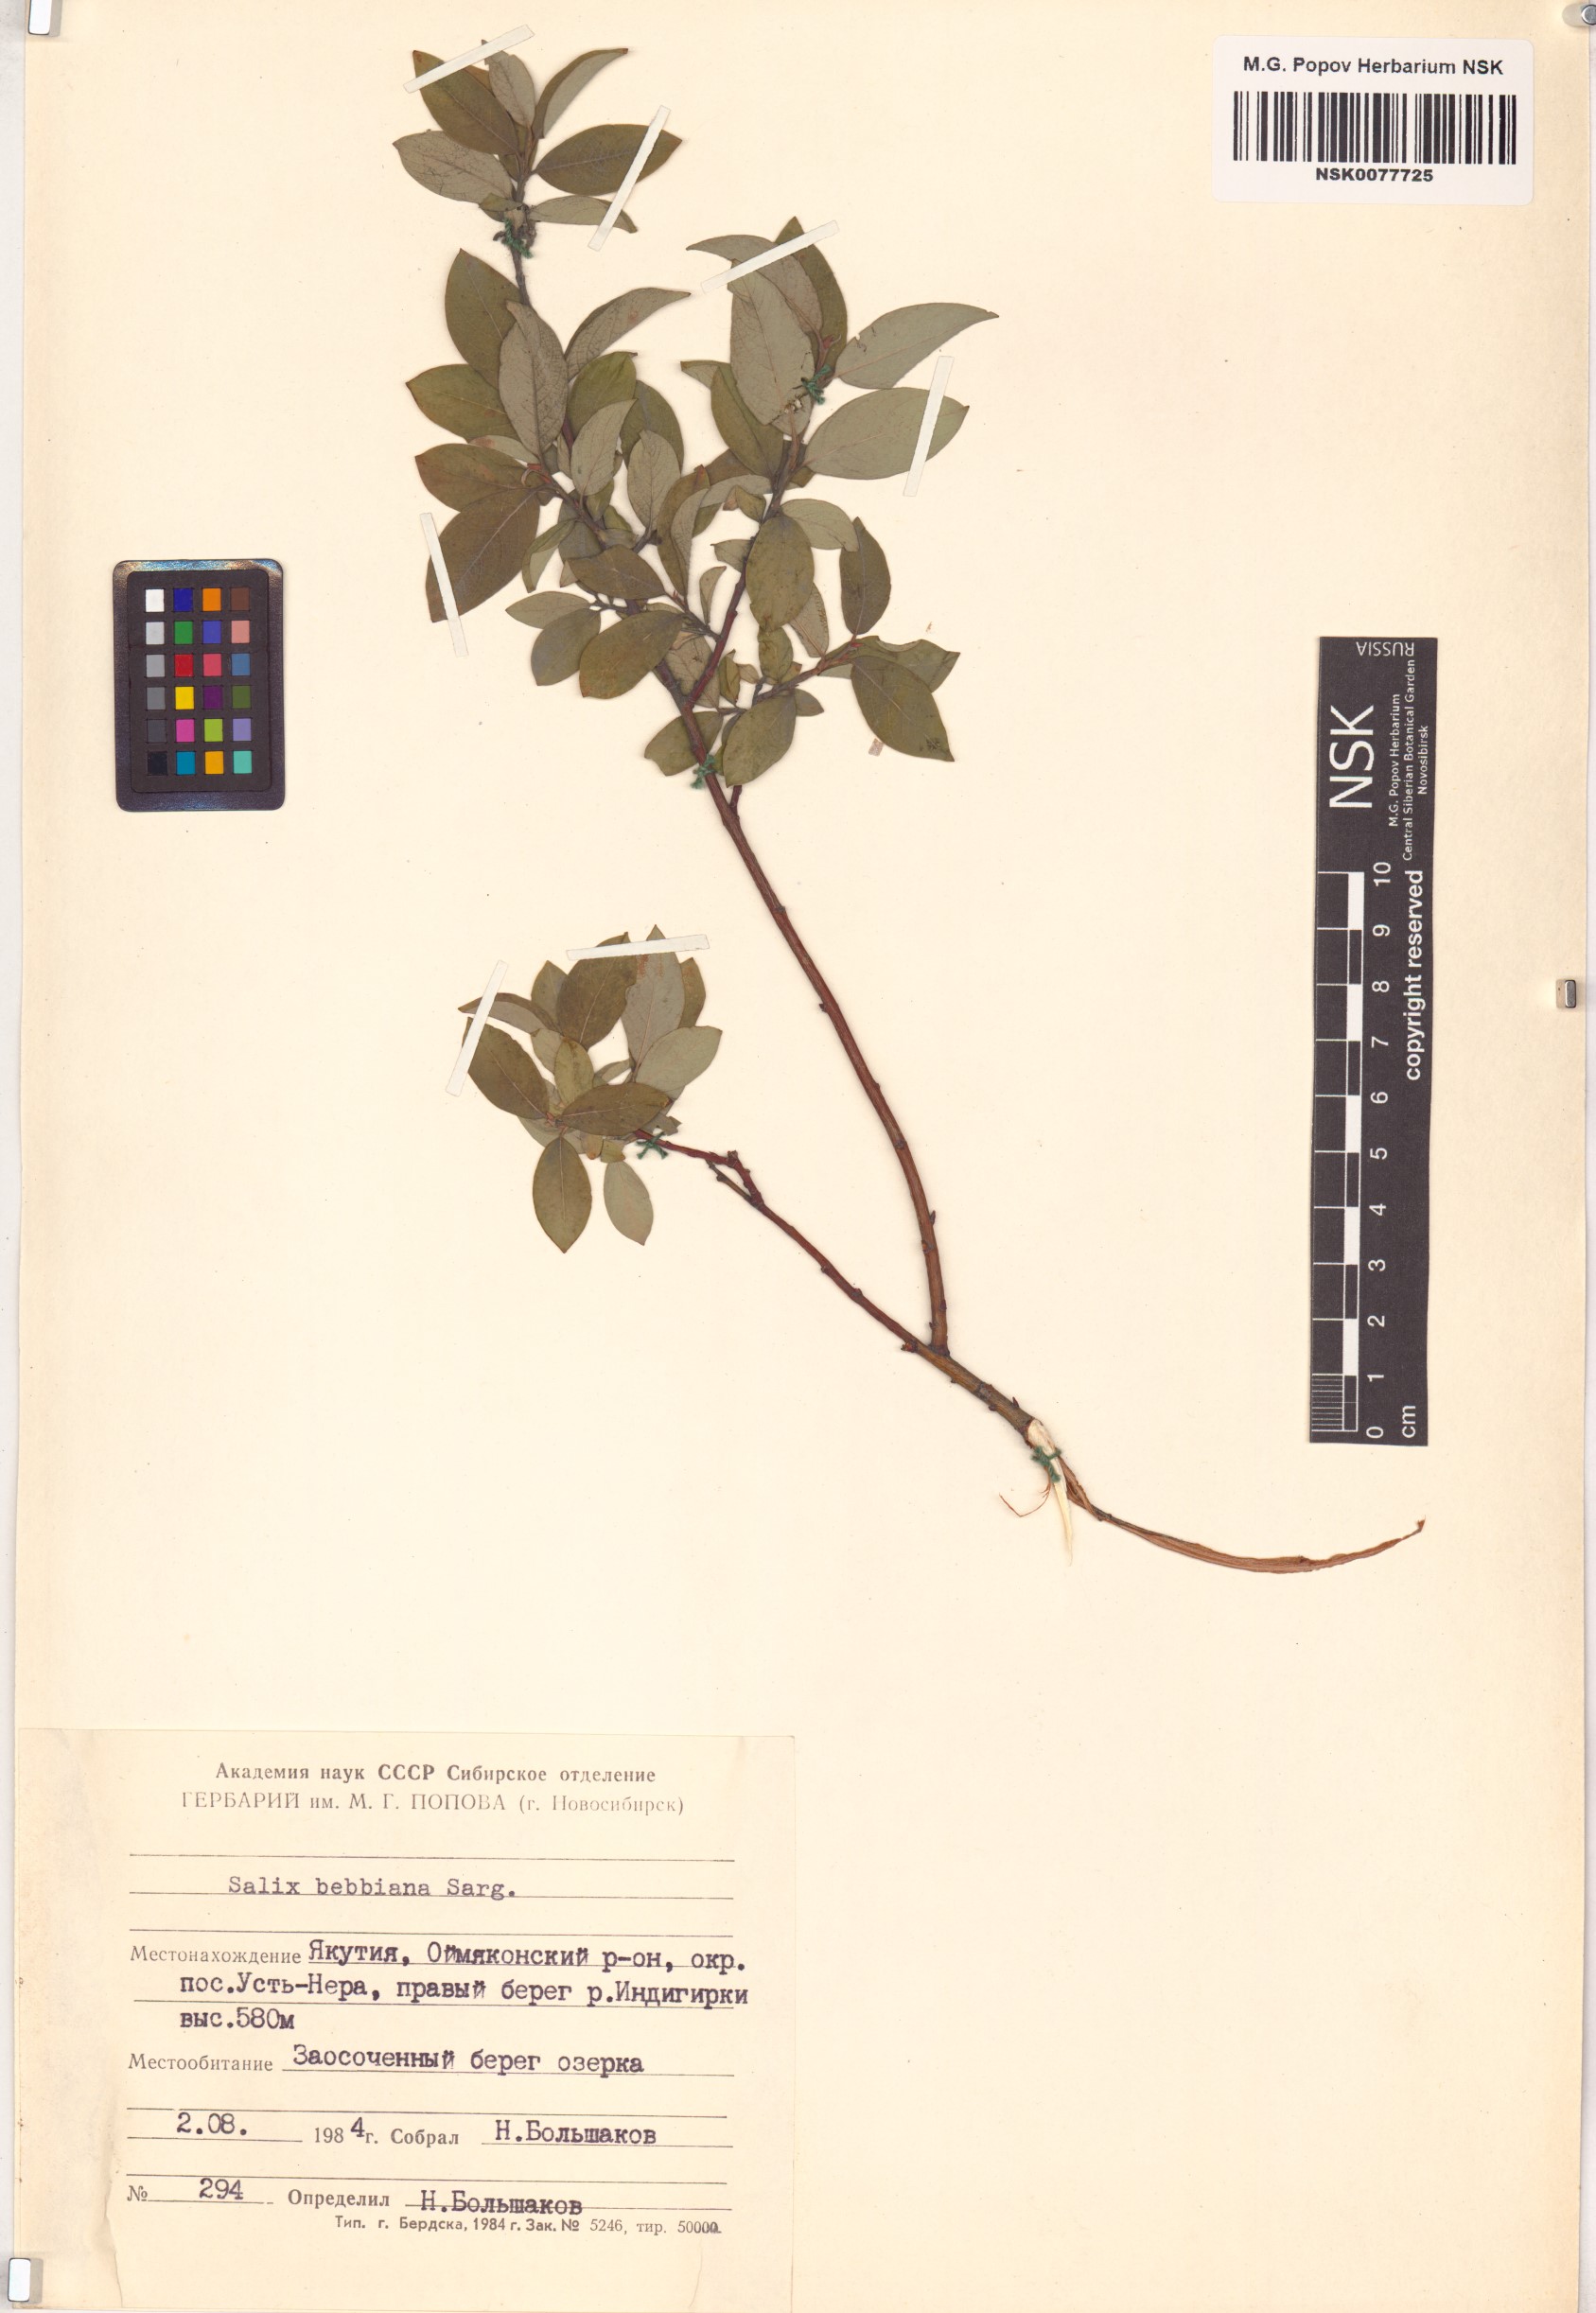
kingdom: Plantae
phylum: Tracheophyta
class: Magnoliopsida
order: Malpighiales
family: Salicaceae
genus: Salix
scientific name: Salix bebbiana
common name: Bebb's willow
